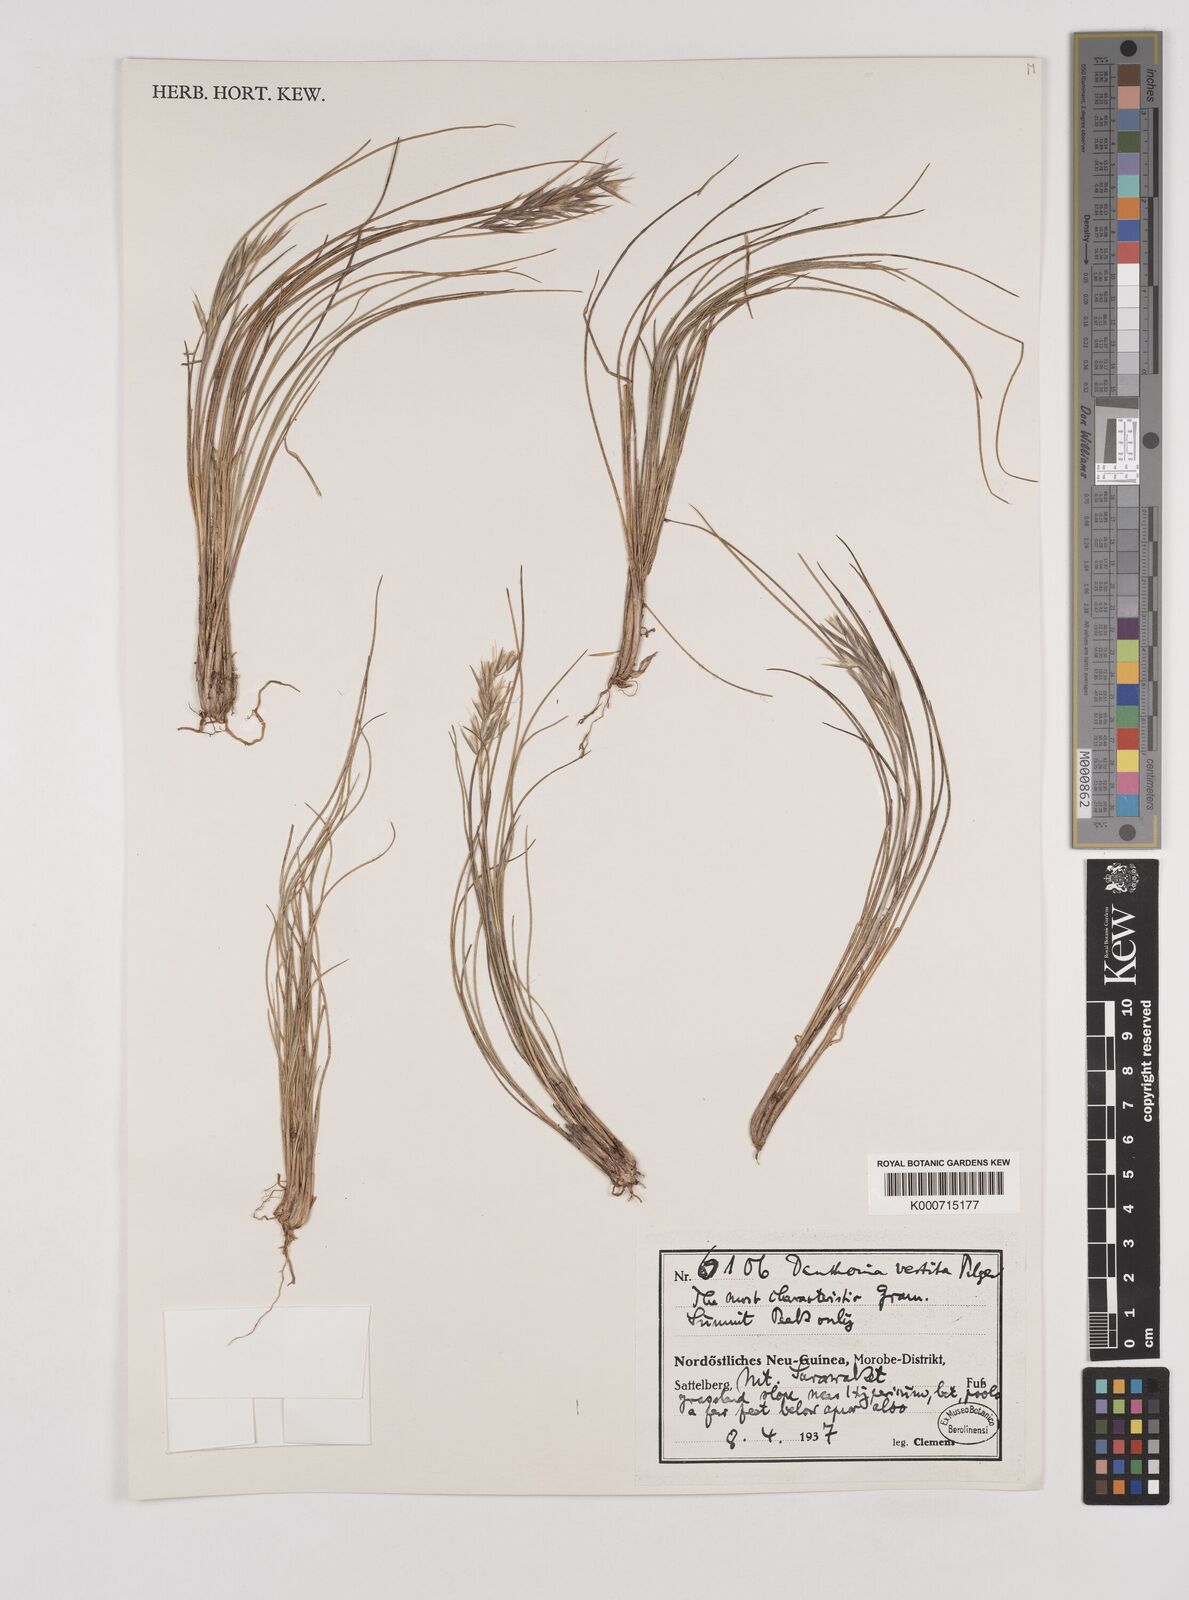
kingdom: Plantae
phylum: Tracheophyta
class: Liliopsida
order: Poales
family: Poaceae
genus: Rytidosperma
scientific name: Rytidosperma vestitum
